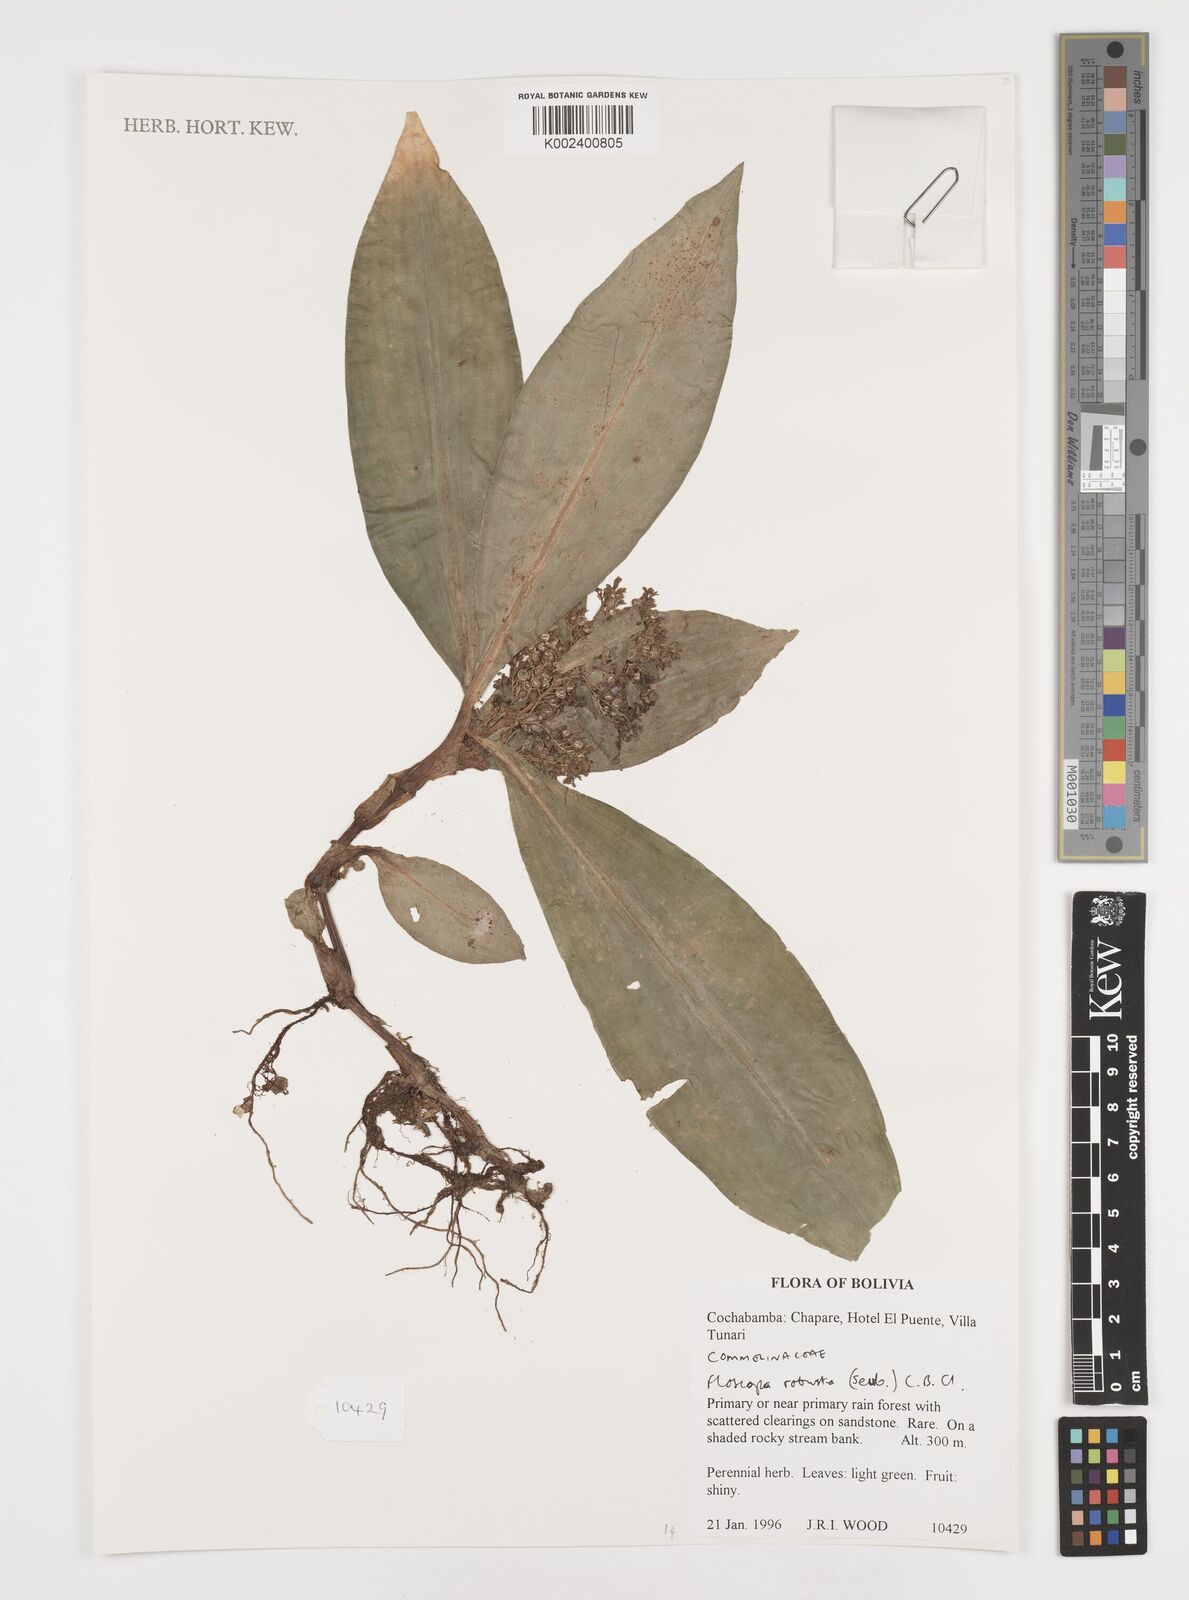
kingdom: Plantae
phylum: Tracheophyta
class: Liliopsida
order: Commelinales
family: Commelinaceae
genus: Floscopa
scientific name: Floscopa robusta
